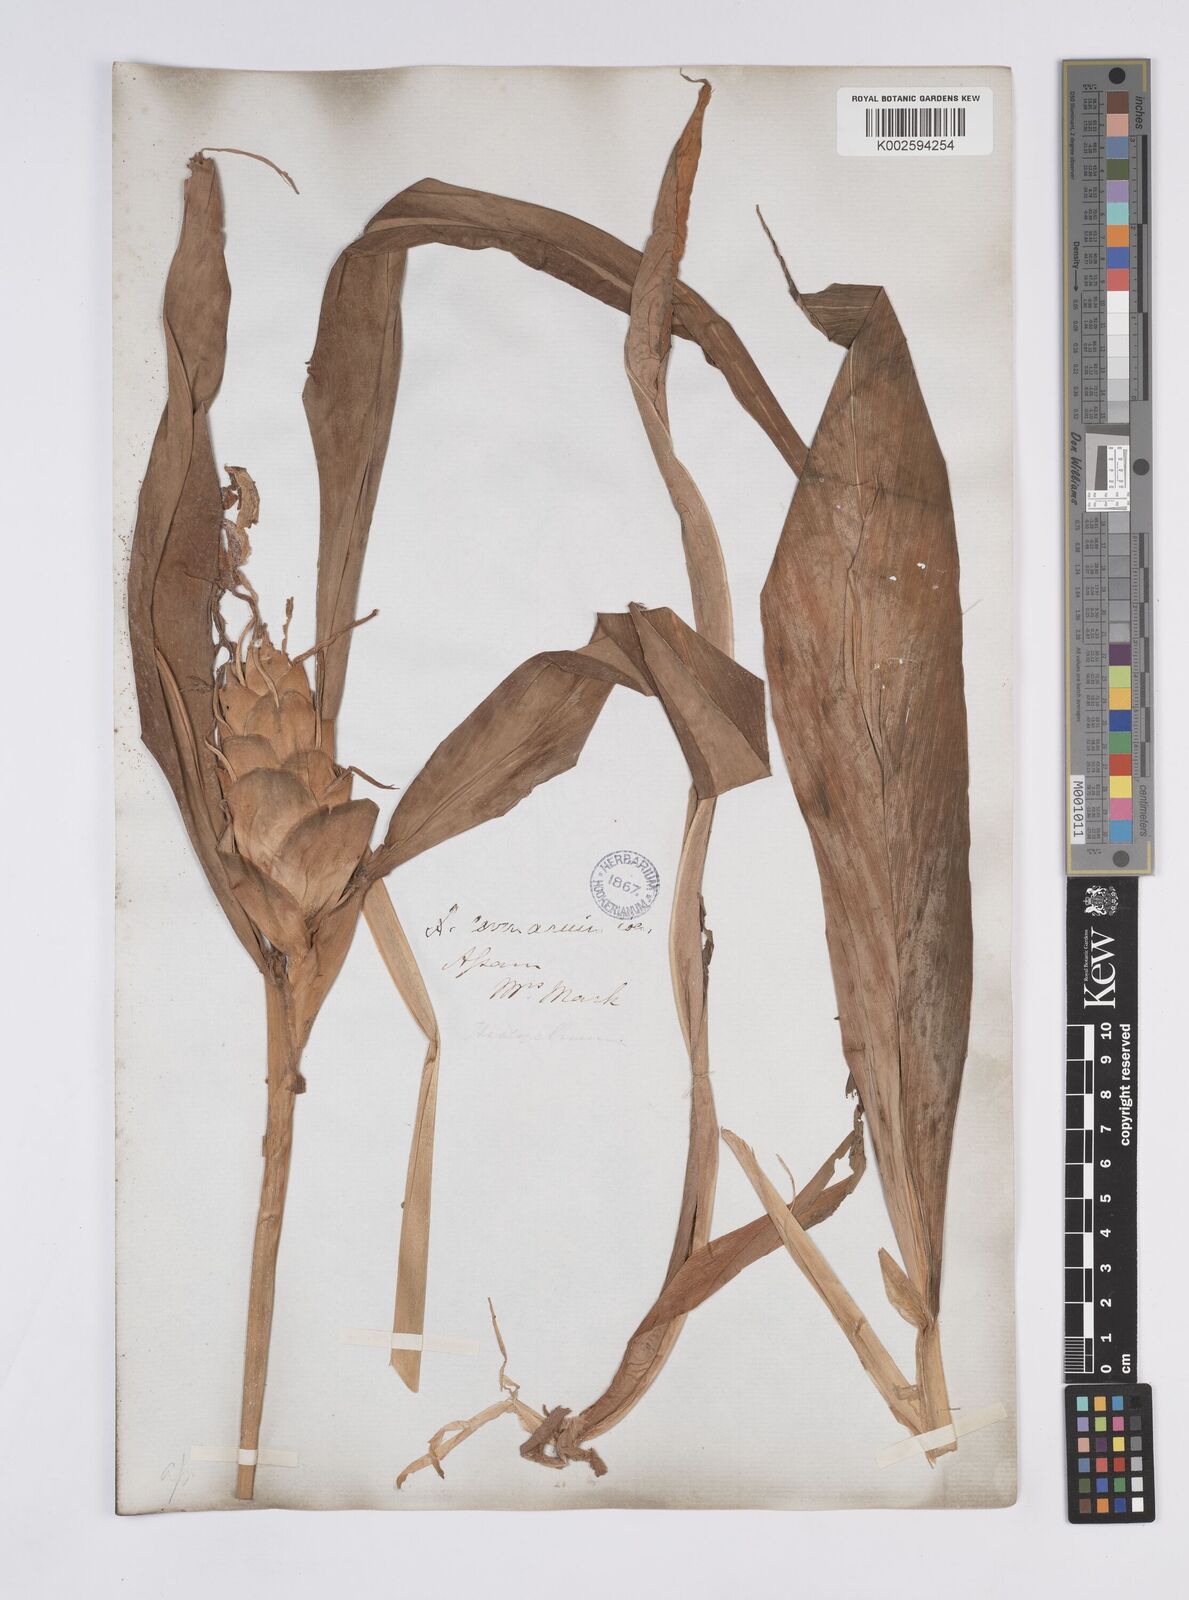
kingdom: Plantae
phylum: Tracheophyta
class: Liliopsida
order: Zingiberales
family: Zingiberaceae
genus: Hedychium
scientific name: Hedychium coronarium
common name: White garland-lily
